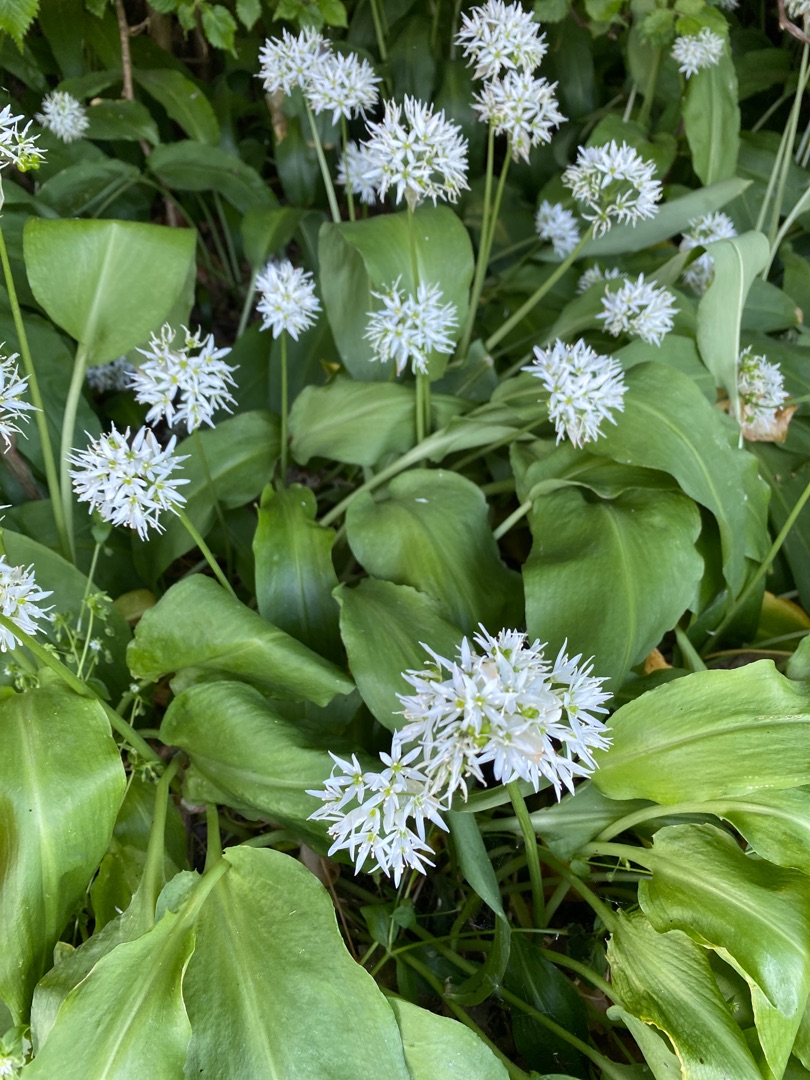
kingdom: Plantae
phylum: Tracheophyta
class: Liliopsida
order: Asparagales
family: Amaryllidaceae
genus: Allium
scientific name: Allium ursinum
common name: Rams-løg
